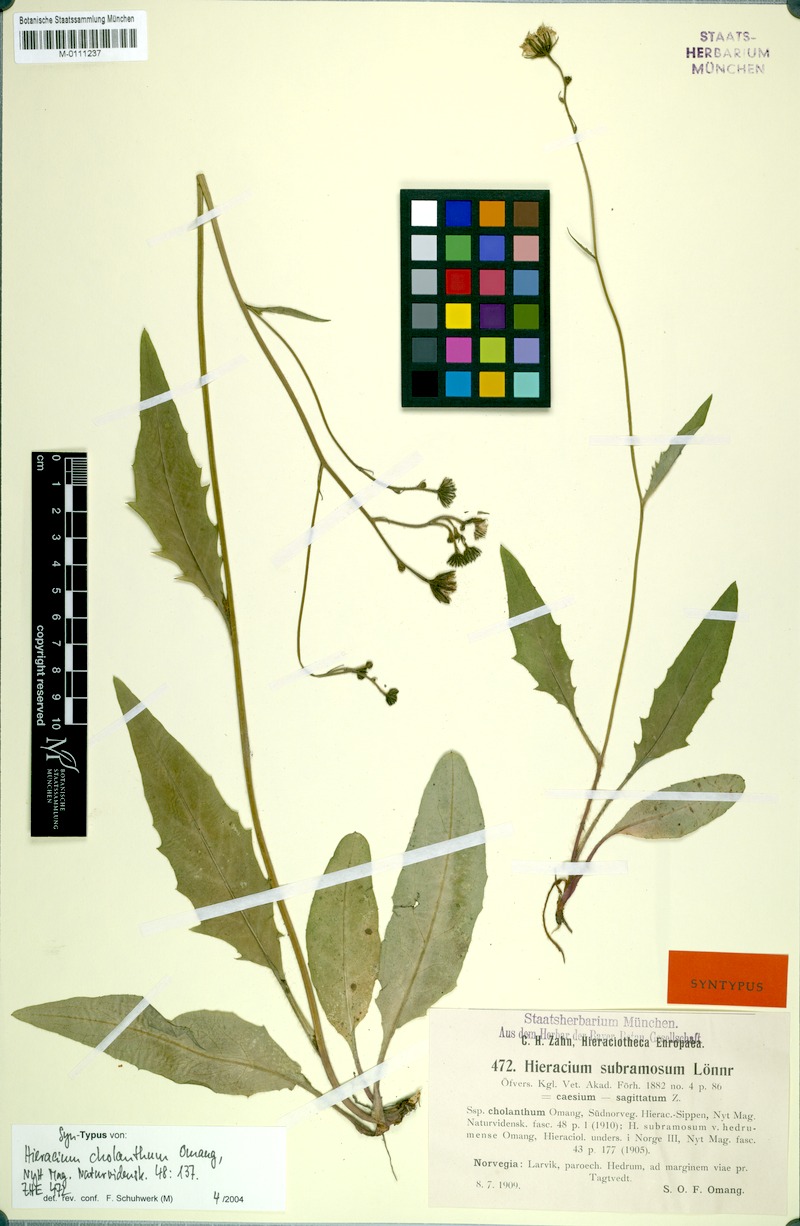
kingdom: Plantae
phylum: Tracheophyta
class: Magnoliopsida
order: Asterales
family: Asteraceae
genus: Hieracium
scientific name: Hieracium subramosum
